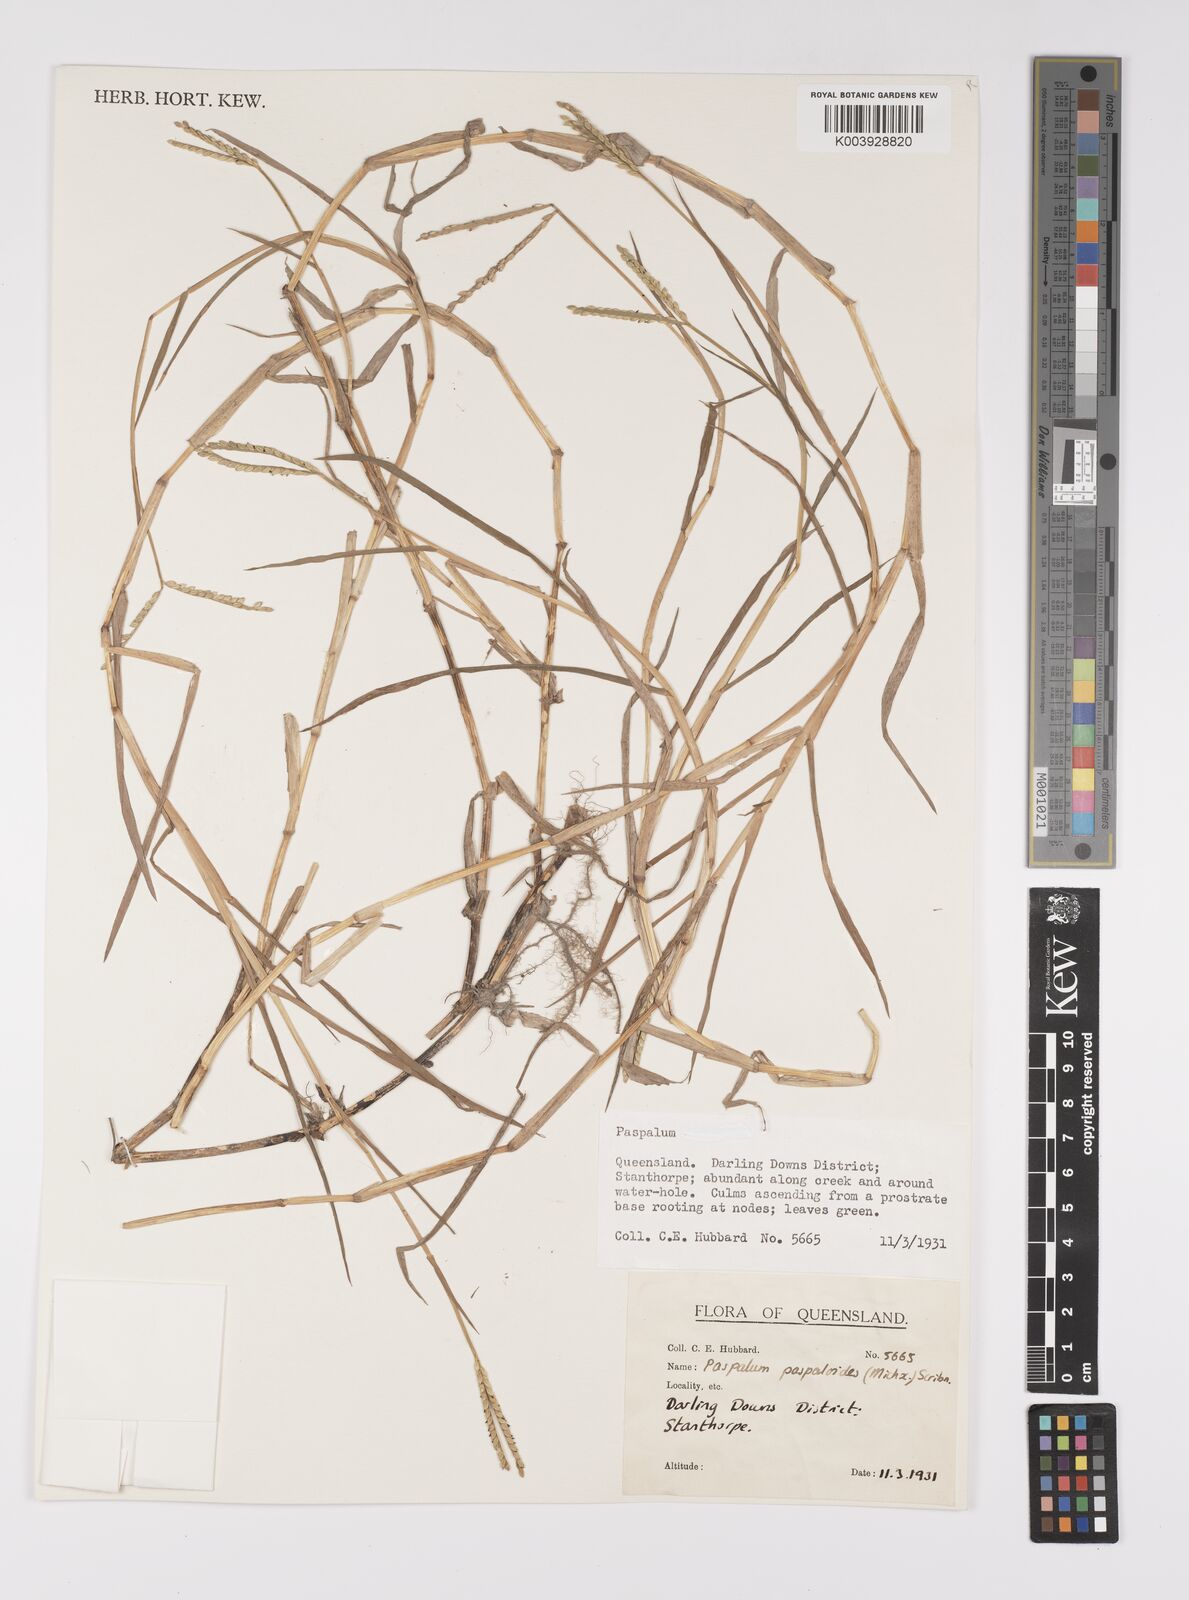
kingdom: Plantae
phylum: Tracheophyta
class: Liliopsida
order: Poales
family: Poaceae
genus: Paspalum
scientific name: Paspalum distichum
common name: Knotgrass
